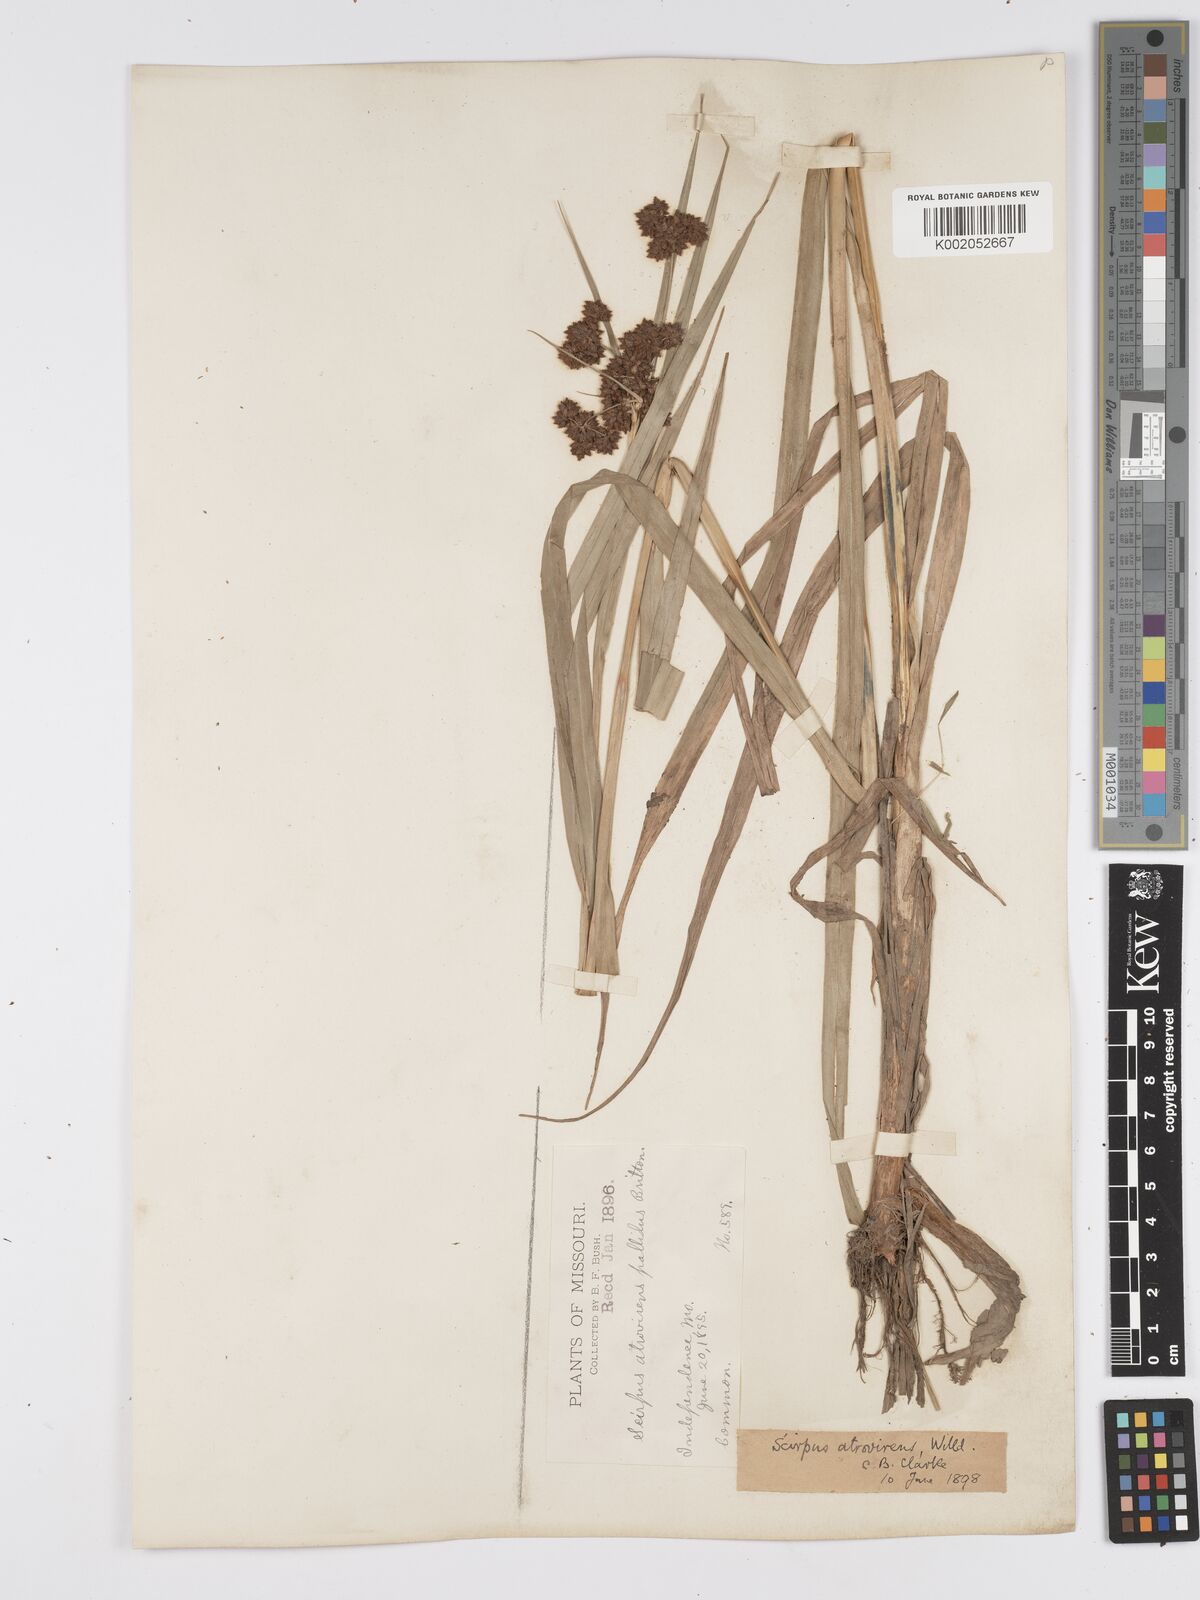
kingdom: Plantae
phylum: Tracheophyta
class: Liliopsida
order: Poales
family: Cyperaceae
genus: Scirpus
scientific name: Scirpus atrovirens
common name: Black bulrush
